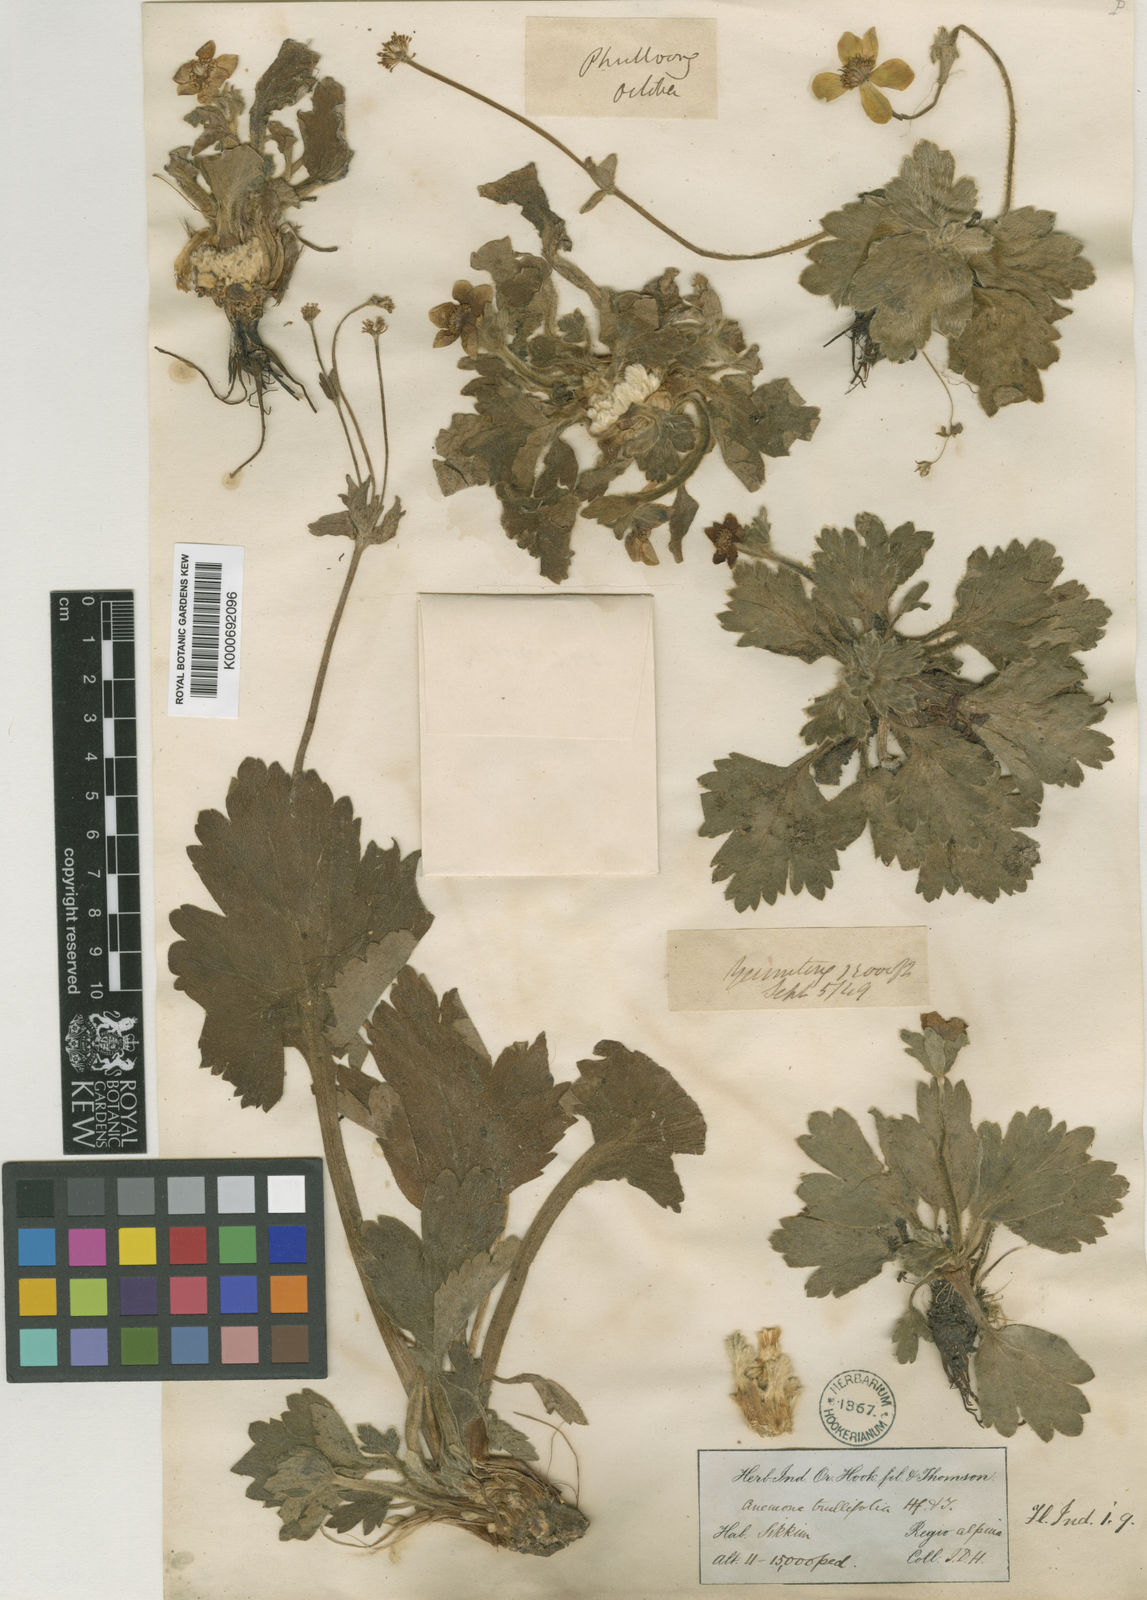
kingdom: Plantae
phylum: Tracheophyta
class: Magnoliopsida
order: Ranunculales
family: Ranunculaceae
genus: Anemonastrum
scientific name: Anemonastrum trullifolium
